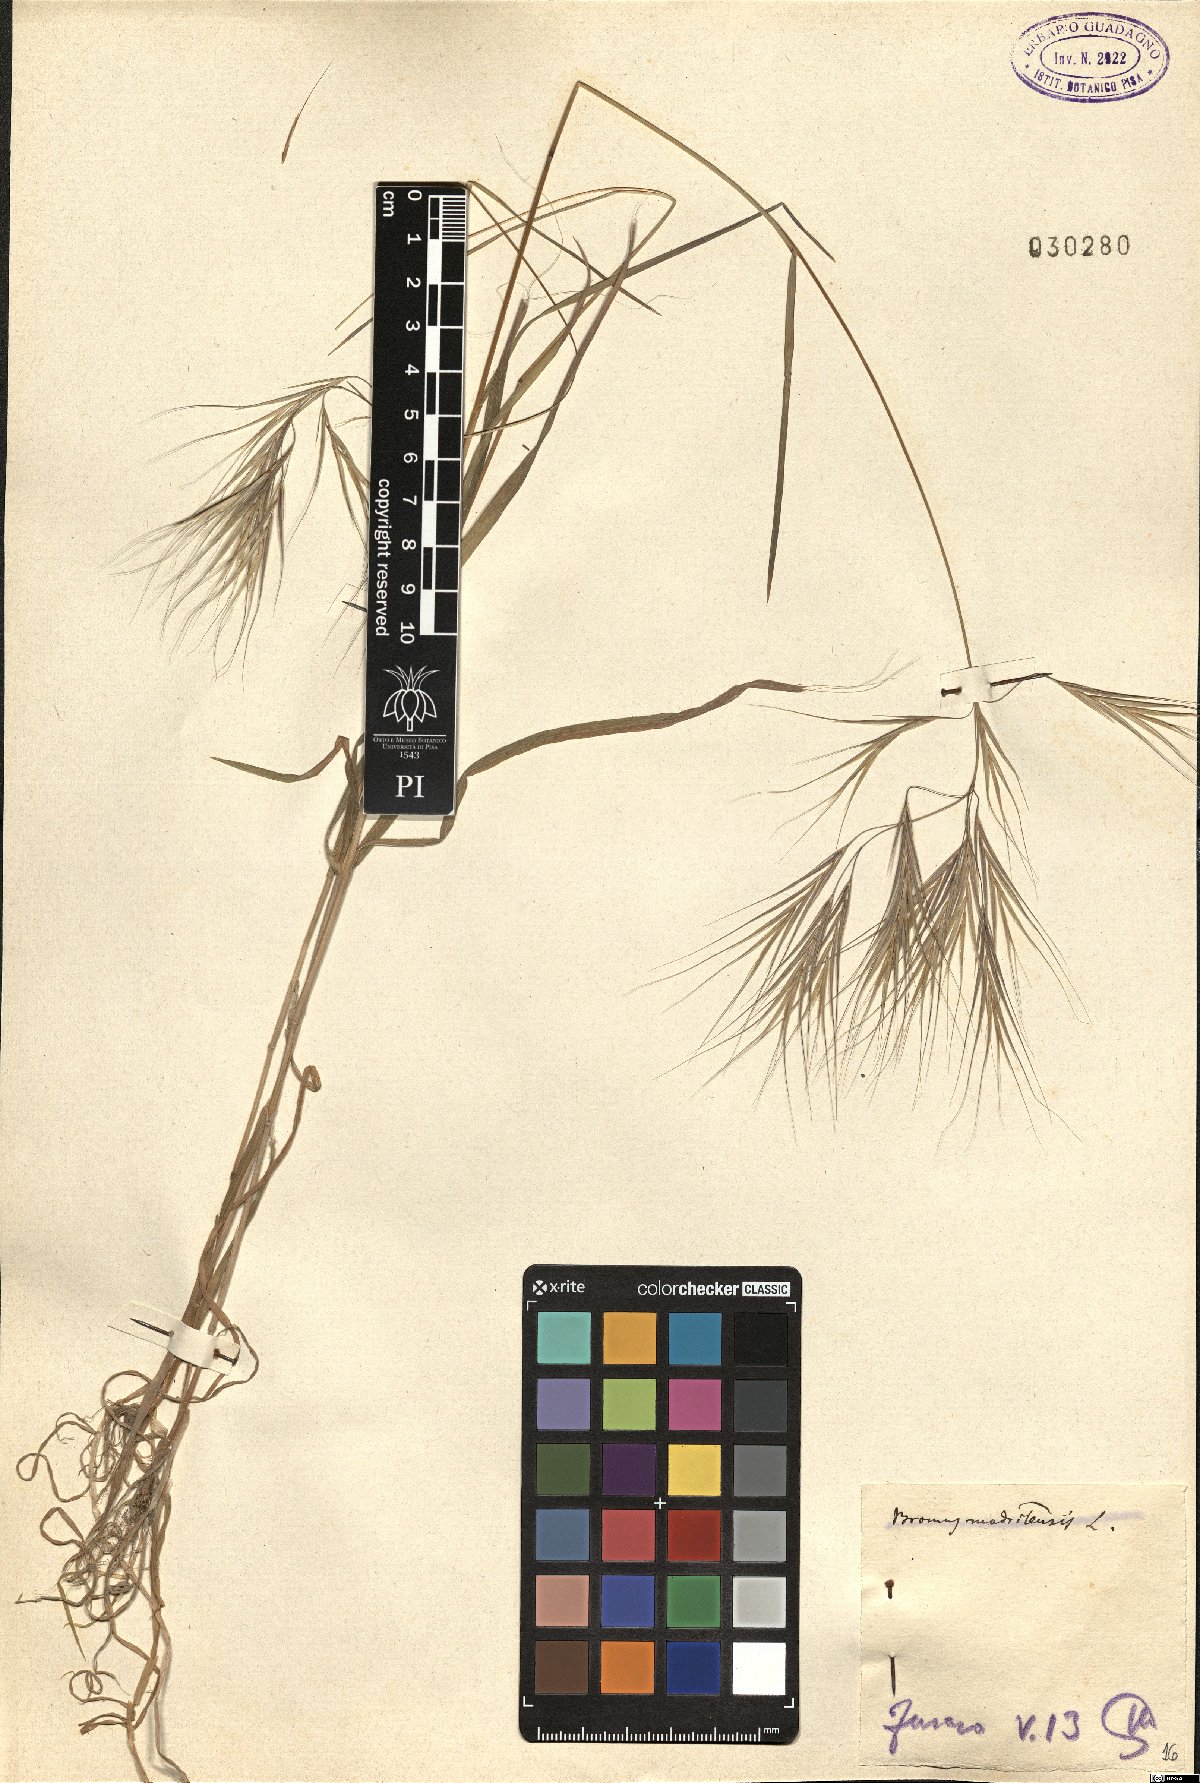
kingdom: Plantae
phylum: Tracheophyta
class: Liliopsida
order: Poales
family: Poaceae
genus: Bromus
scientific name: Bromus madritensis
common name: Compact brome
